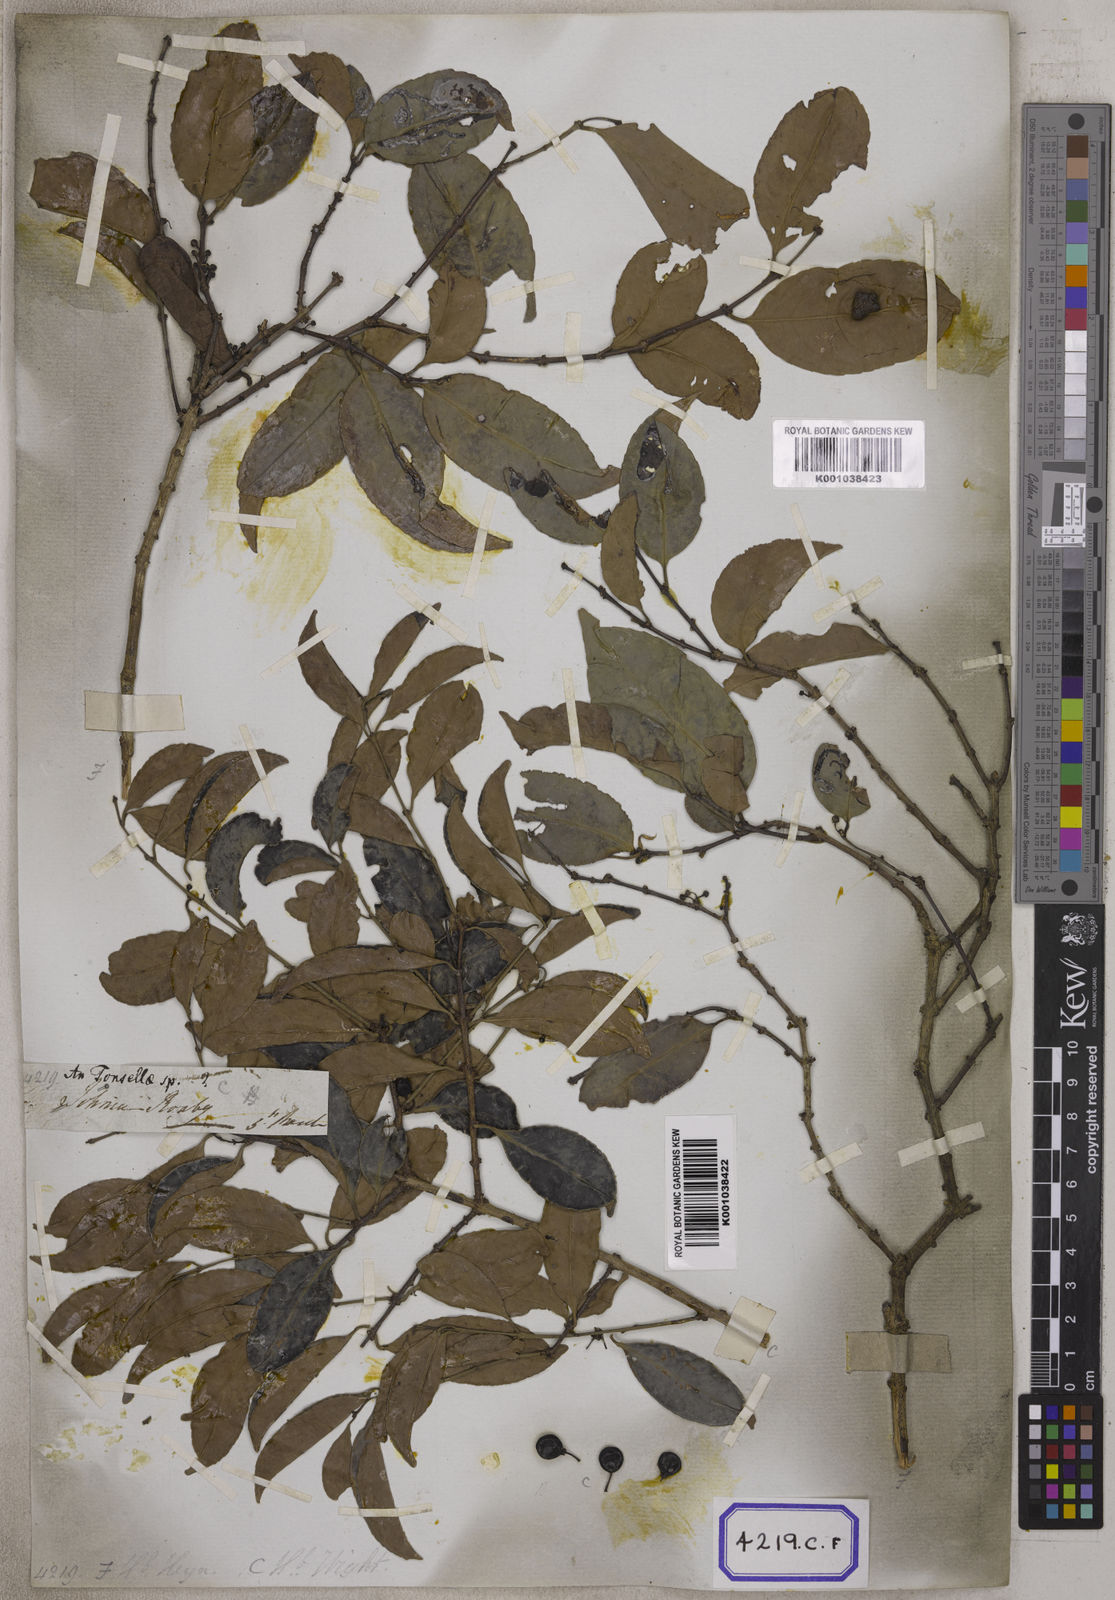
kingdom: Plantae
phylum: Tracheophyta
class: Magnoliopsida
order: Celastrales
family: Celastraceae
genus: Salacia
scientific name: Salacia chinensis
